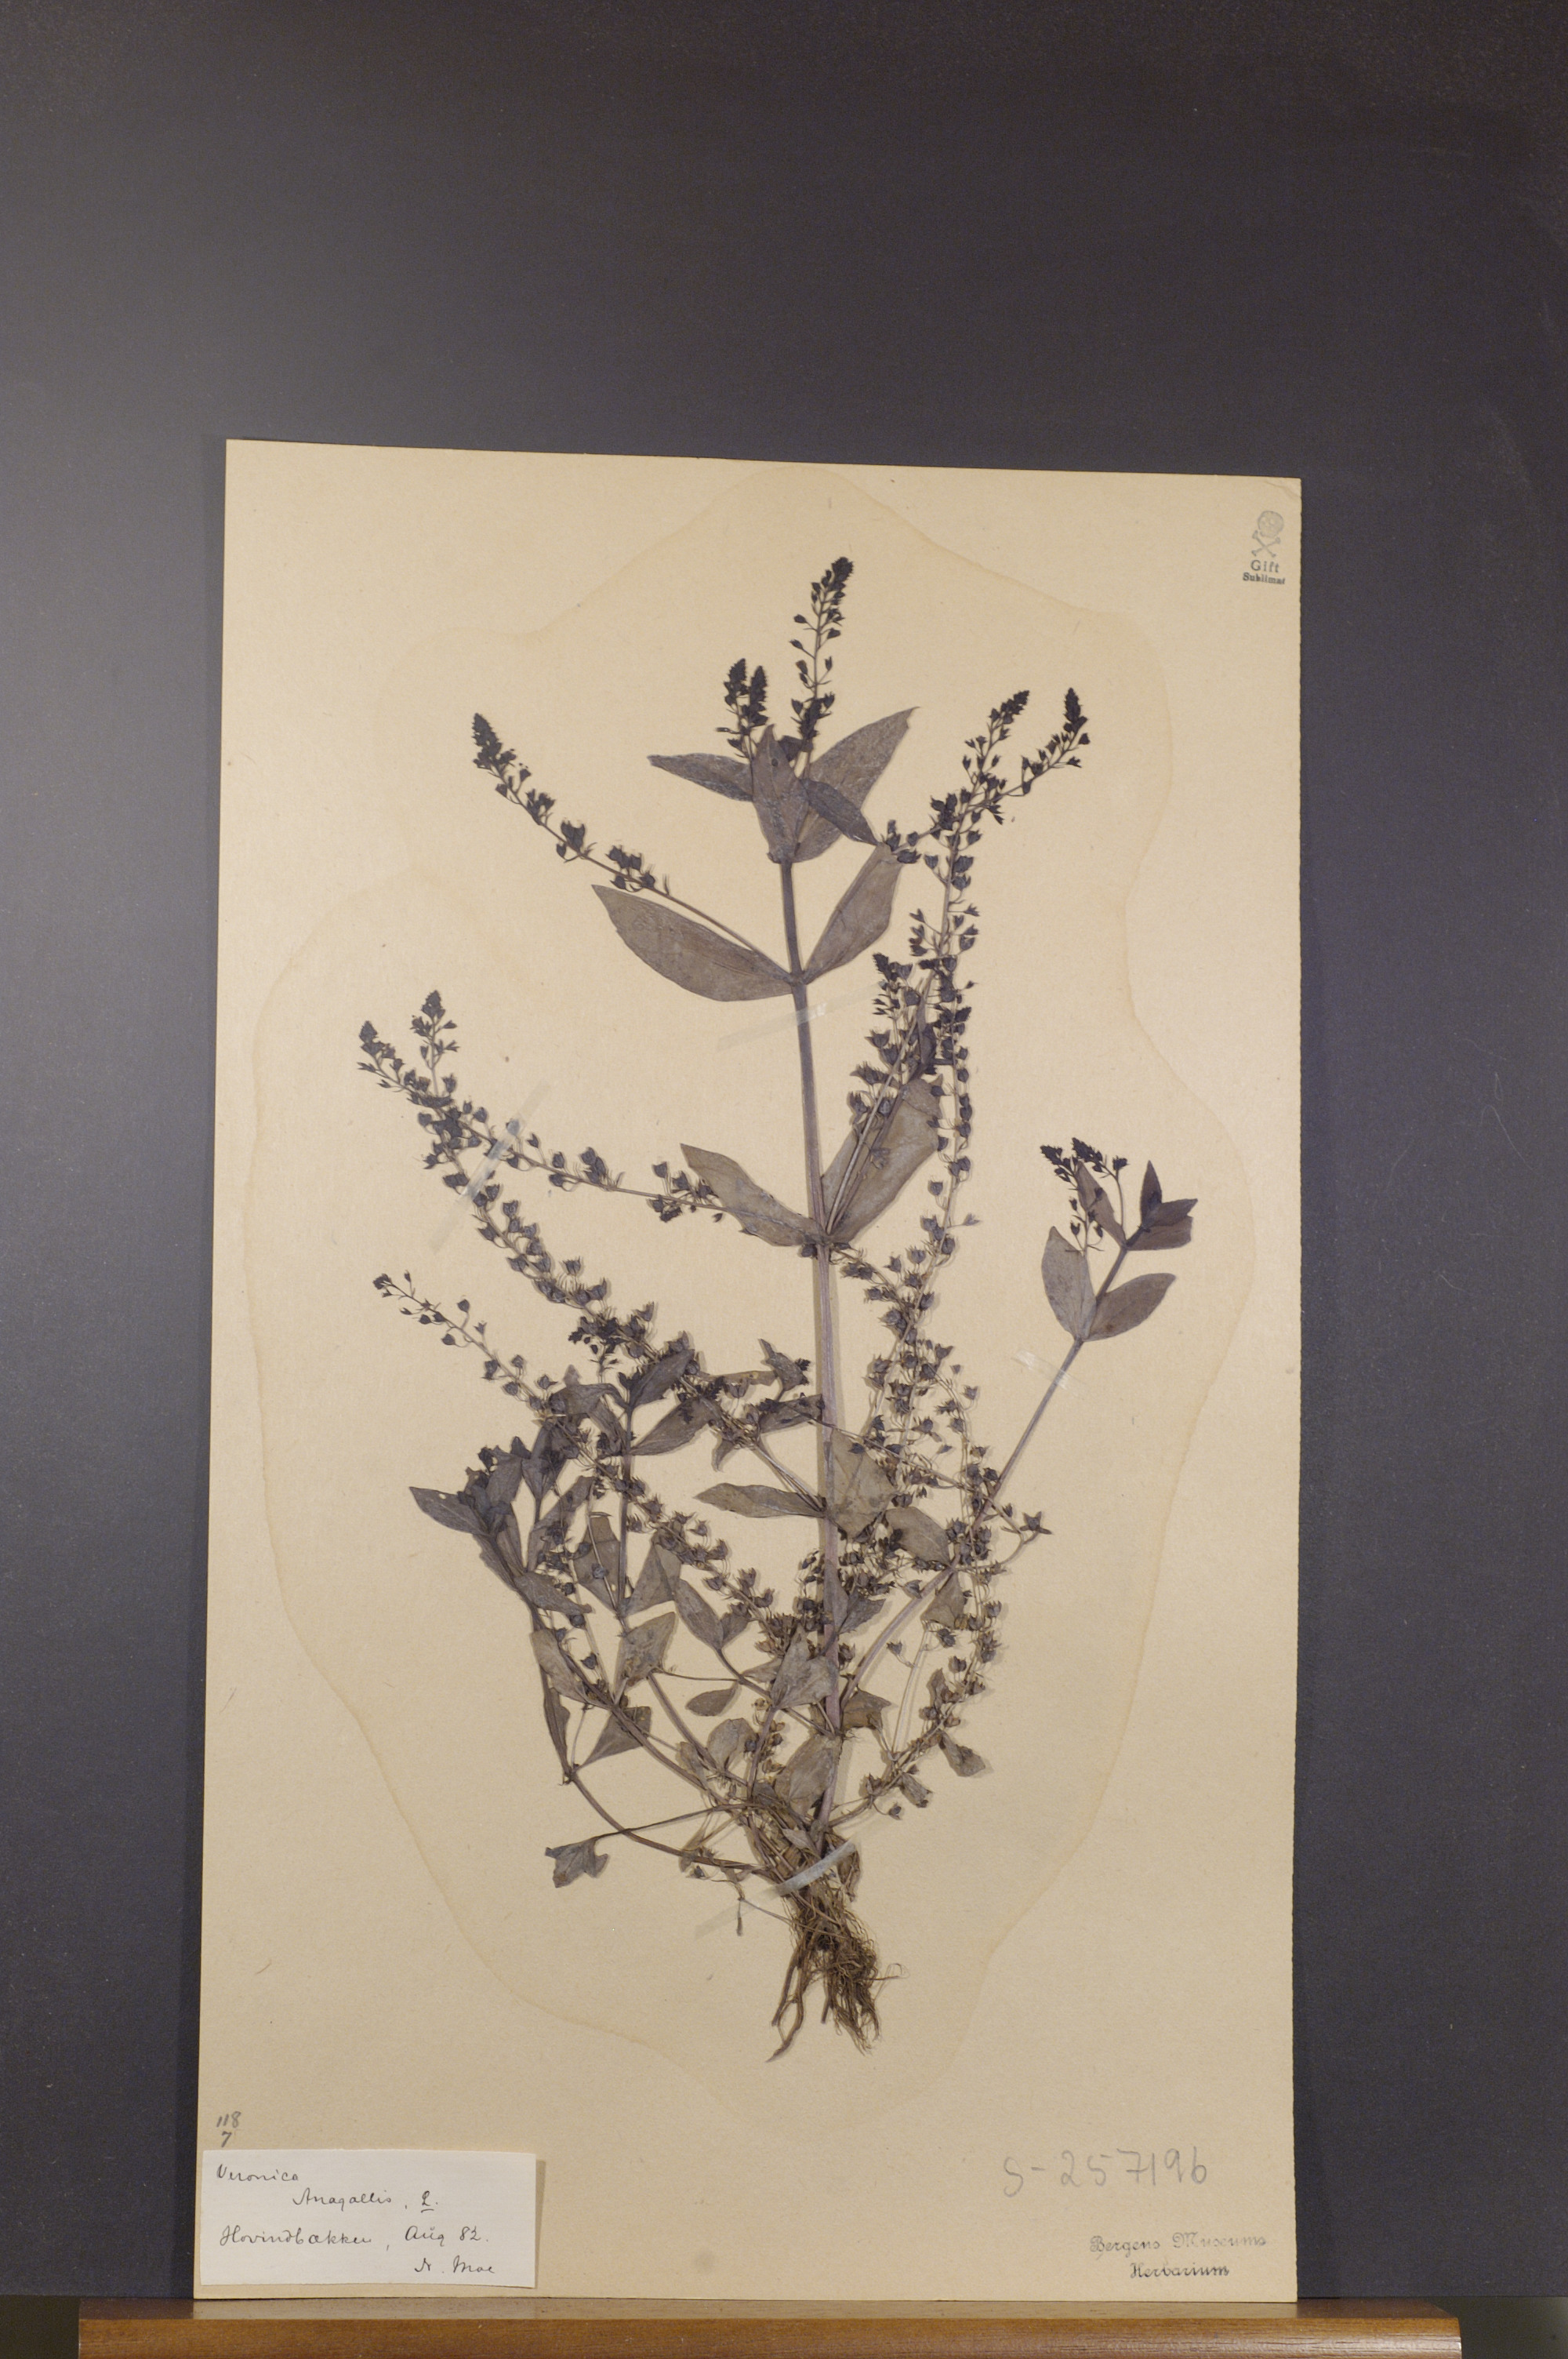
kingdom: Plantae
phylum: Tracheophyta
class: Magnoliopsida
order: Lamiales
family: Plantaginaceae
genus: Veronica
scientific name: Veronica anagallis-aquatica
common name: Water speedwell
